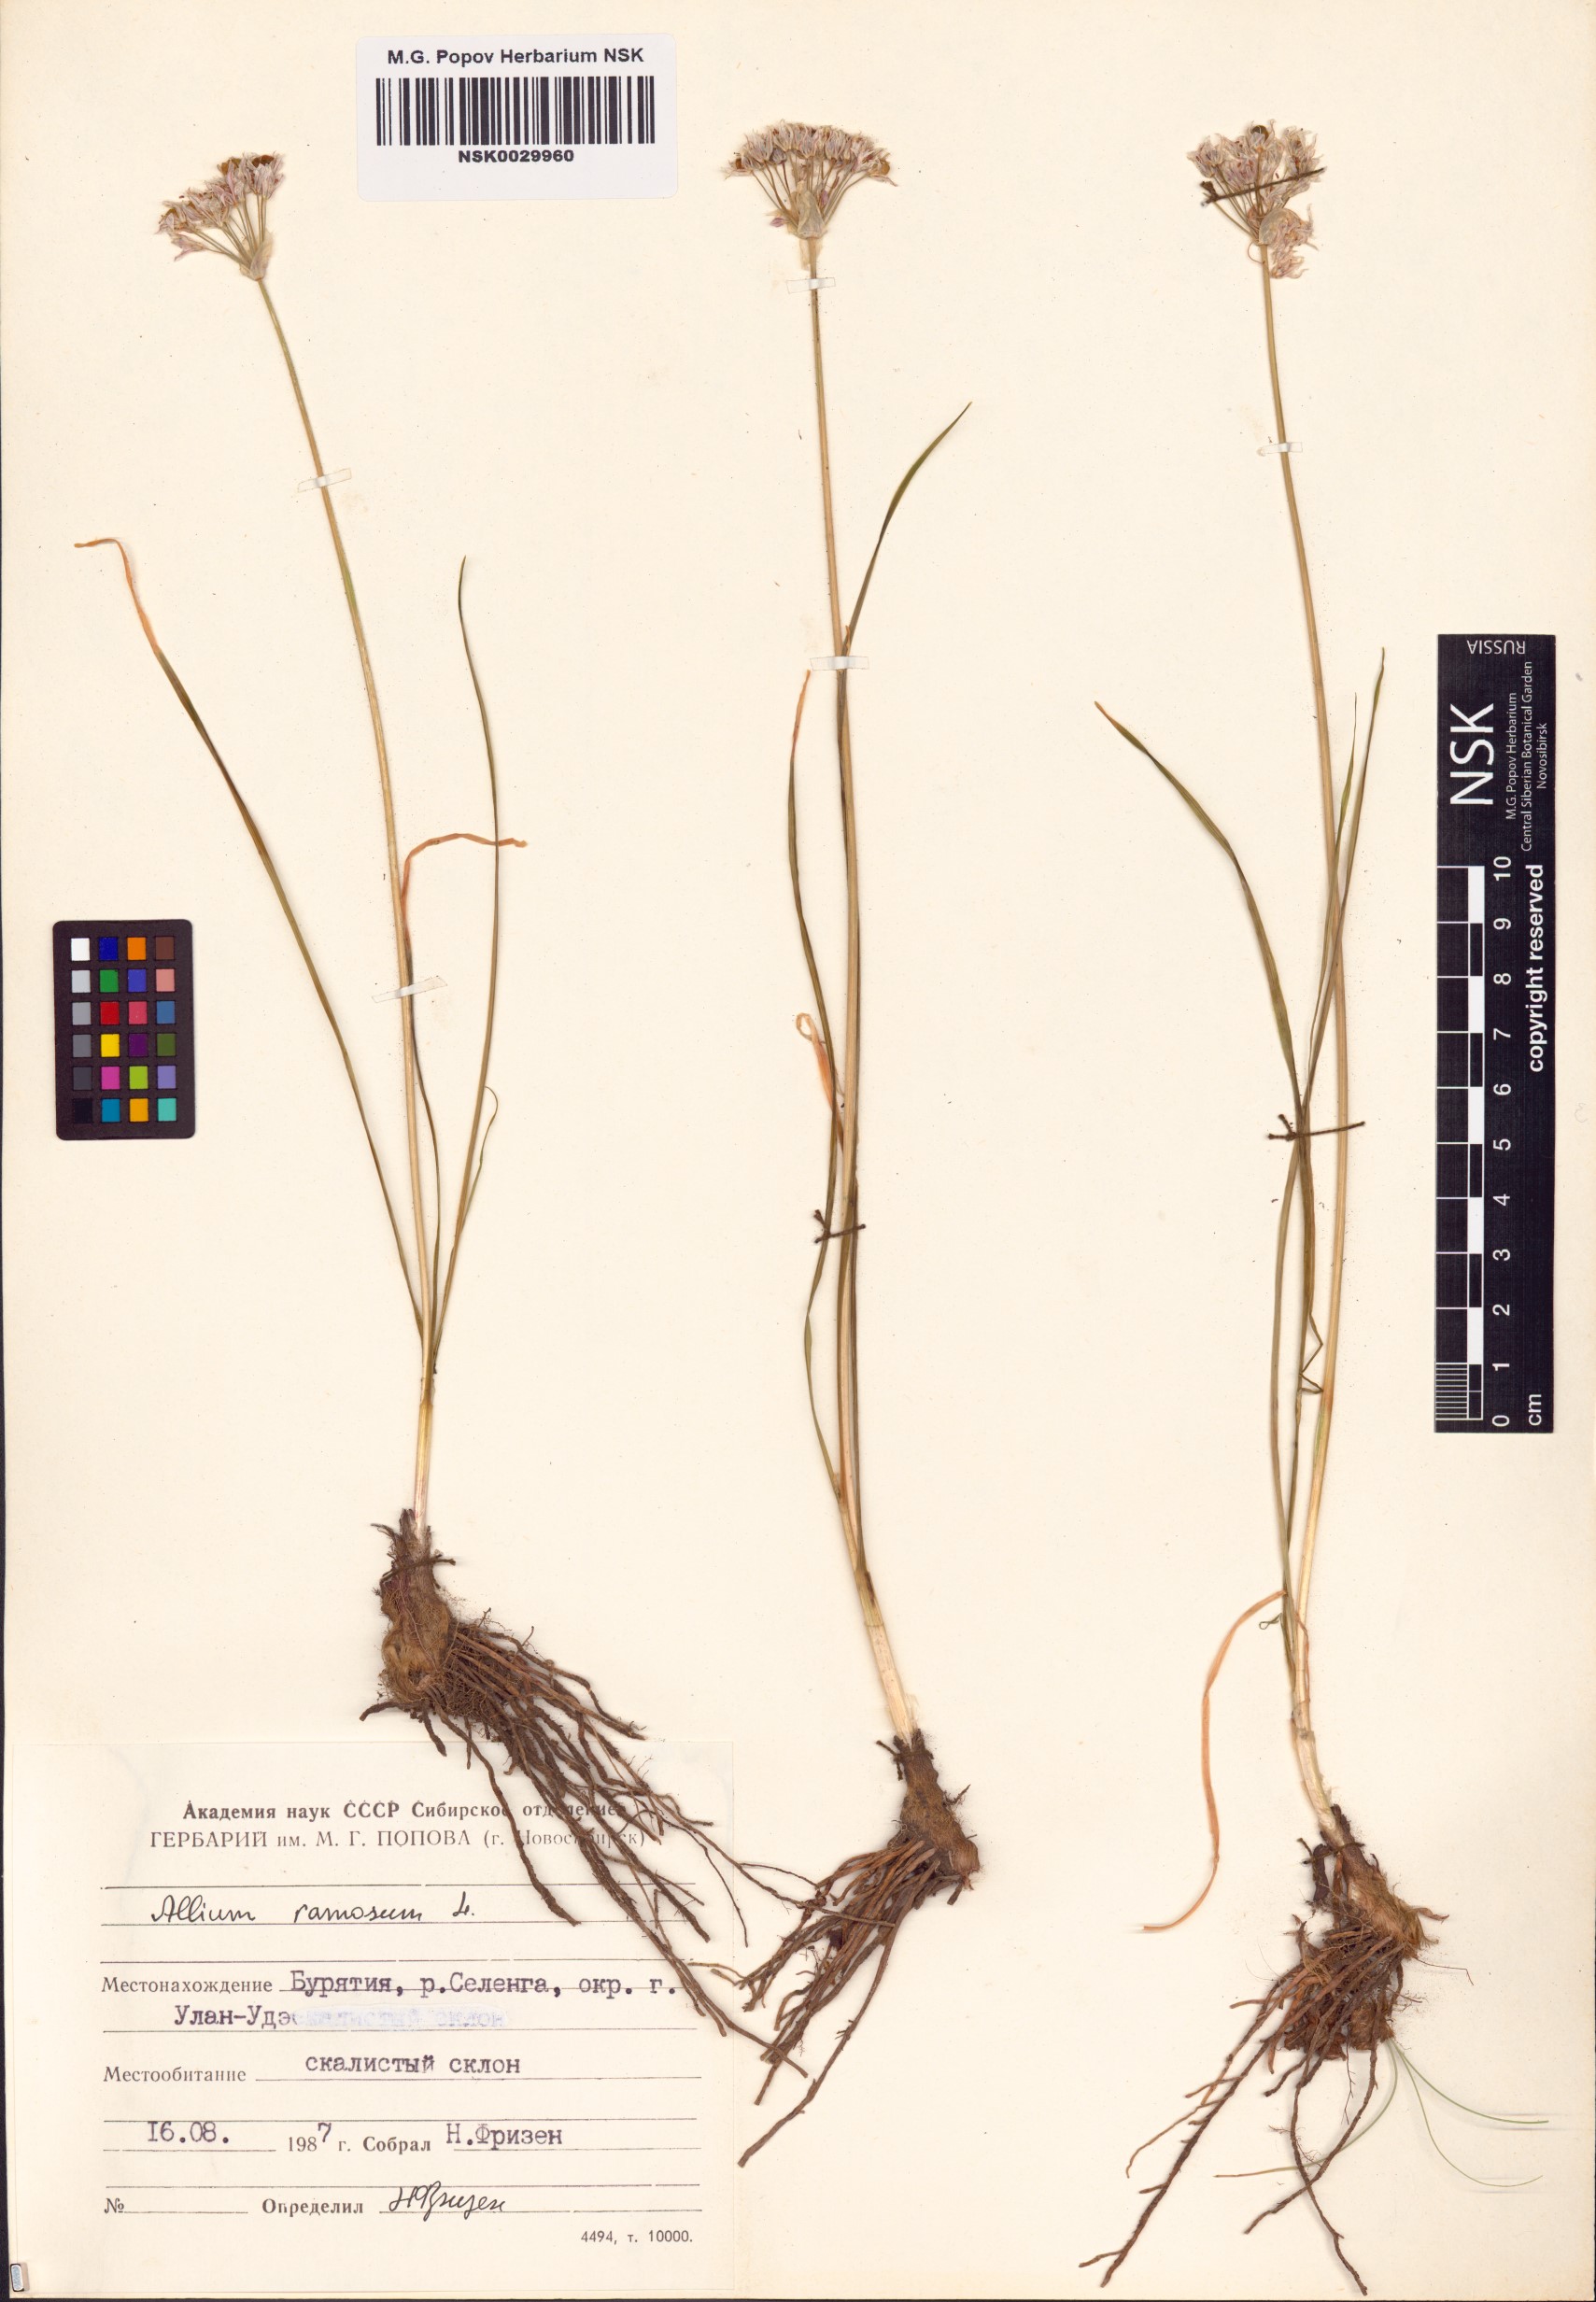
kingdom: Plantae
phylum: Tracheophyta
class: Liliopsida
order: Asparagales
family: Amaryllidaceae
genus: Allium
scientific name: Allium ramosum
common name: Fragrant garlic
